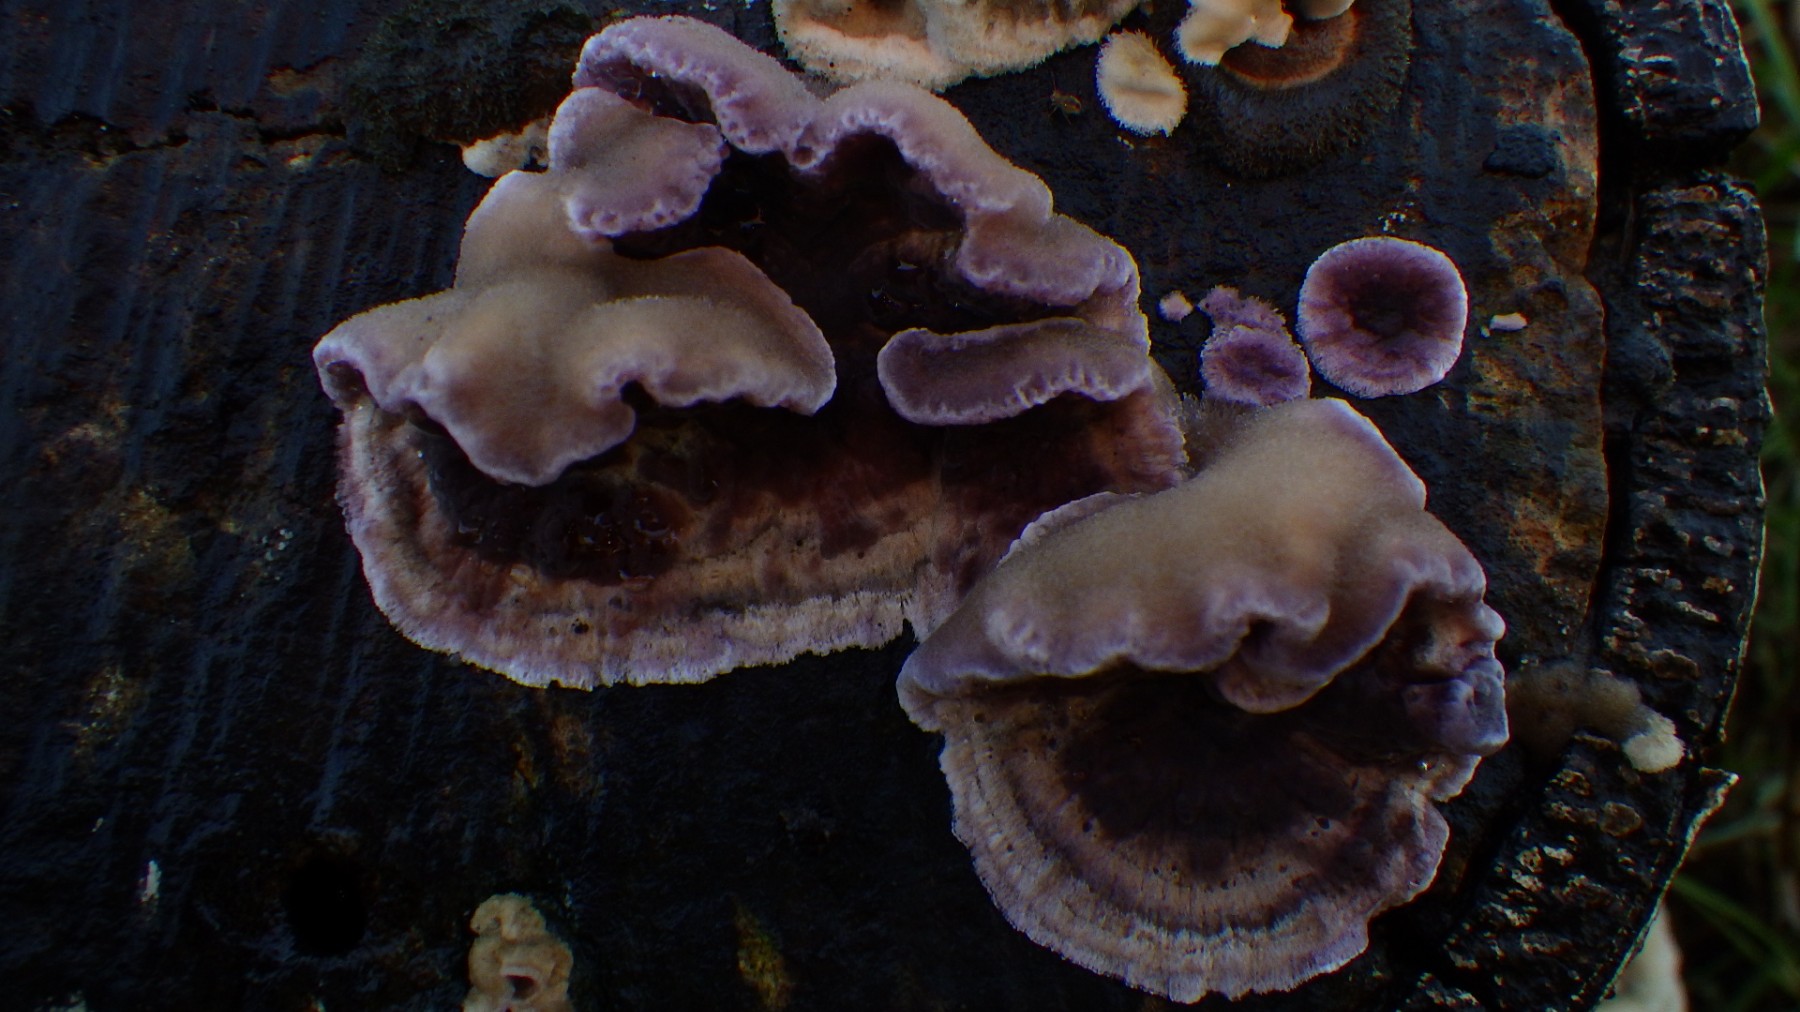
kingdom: Fungi
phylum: Basidiomycota
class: Agaricomycetes
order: Agaricales
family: Cyphellaceae
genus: Chondrostereum
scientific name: Chondrostereum purpureum
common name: purpurlædersvamp
